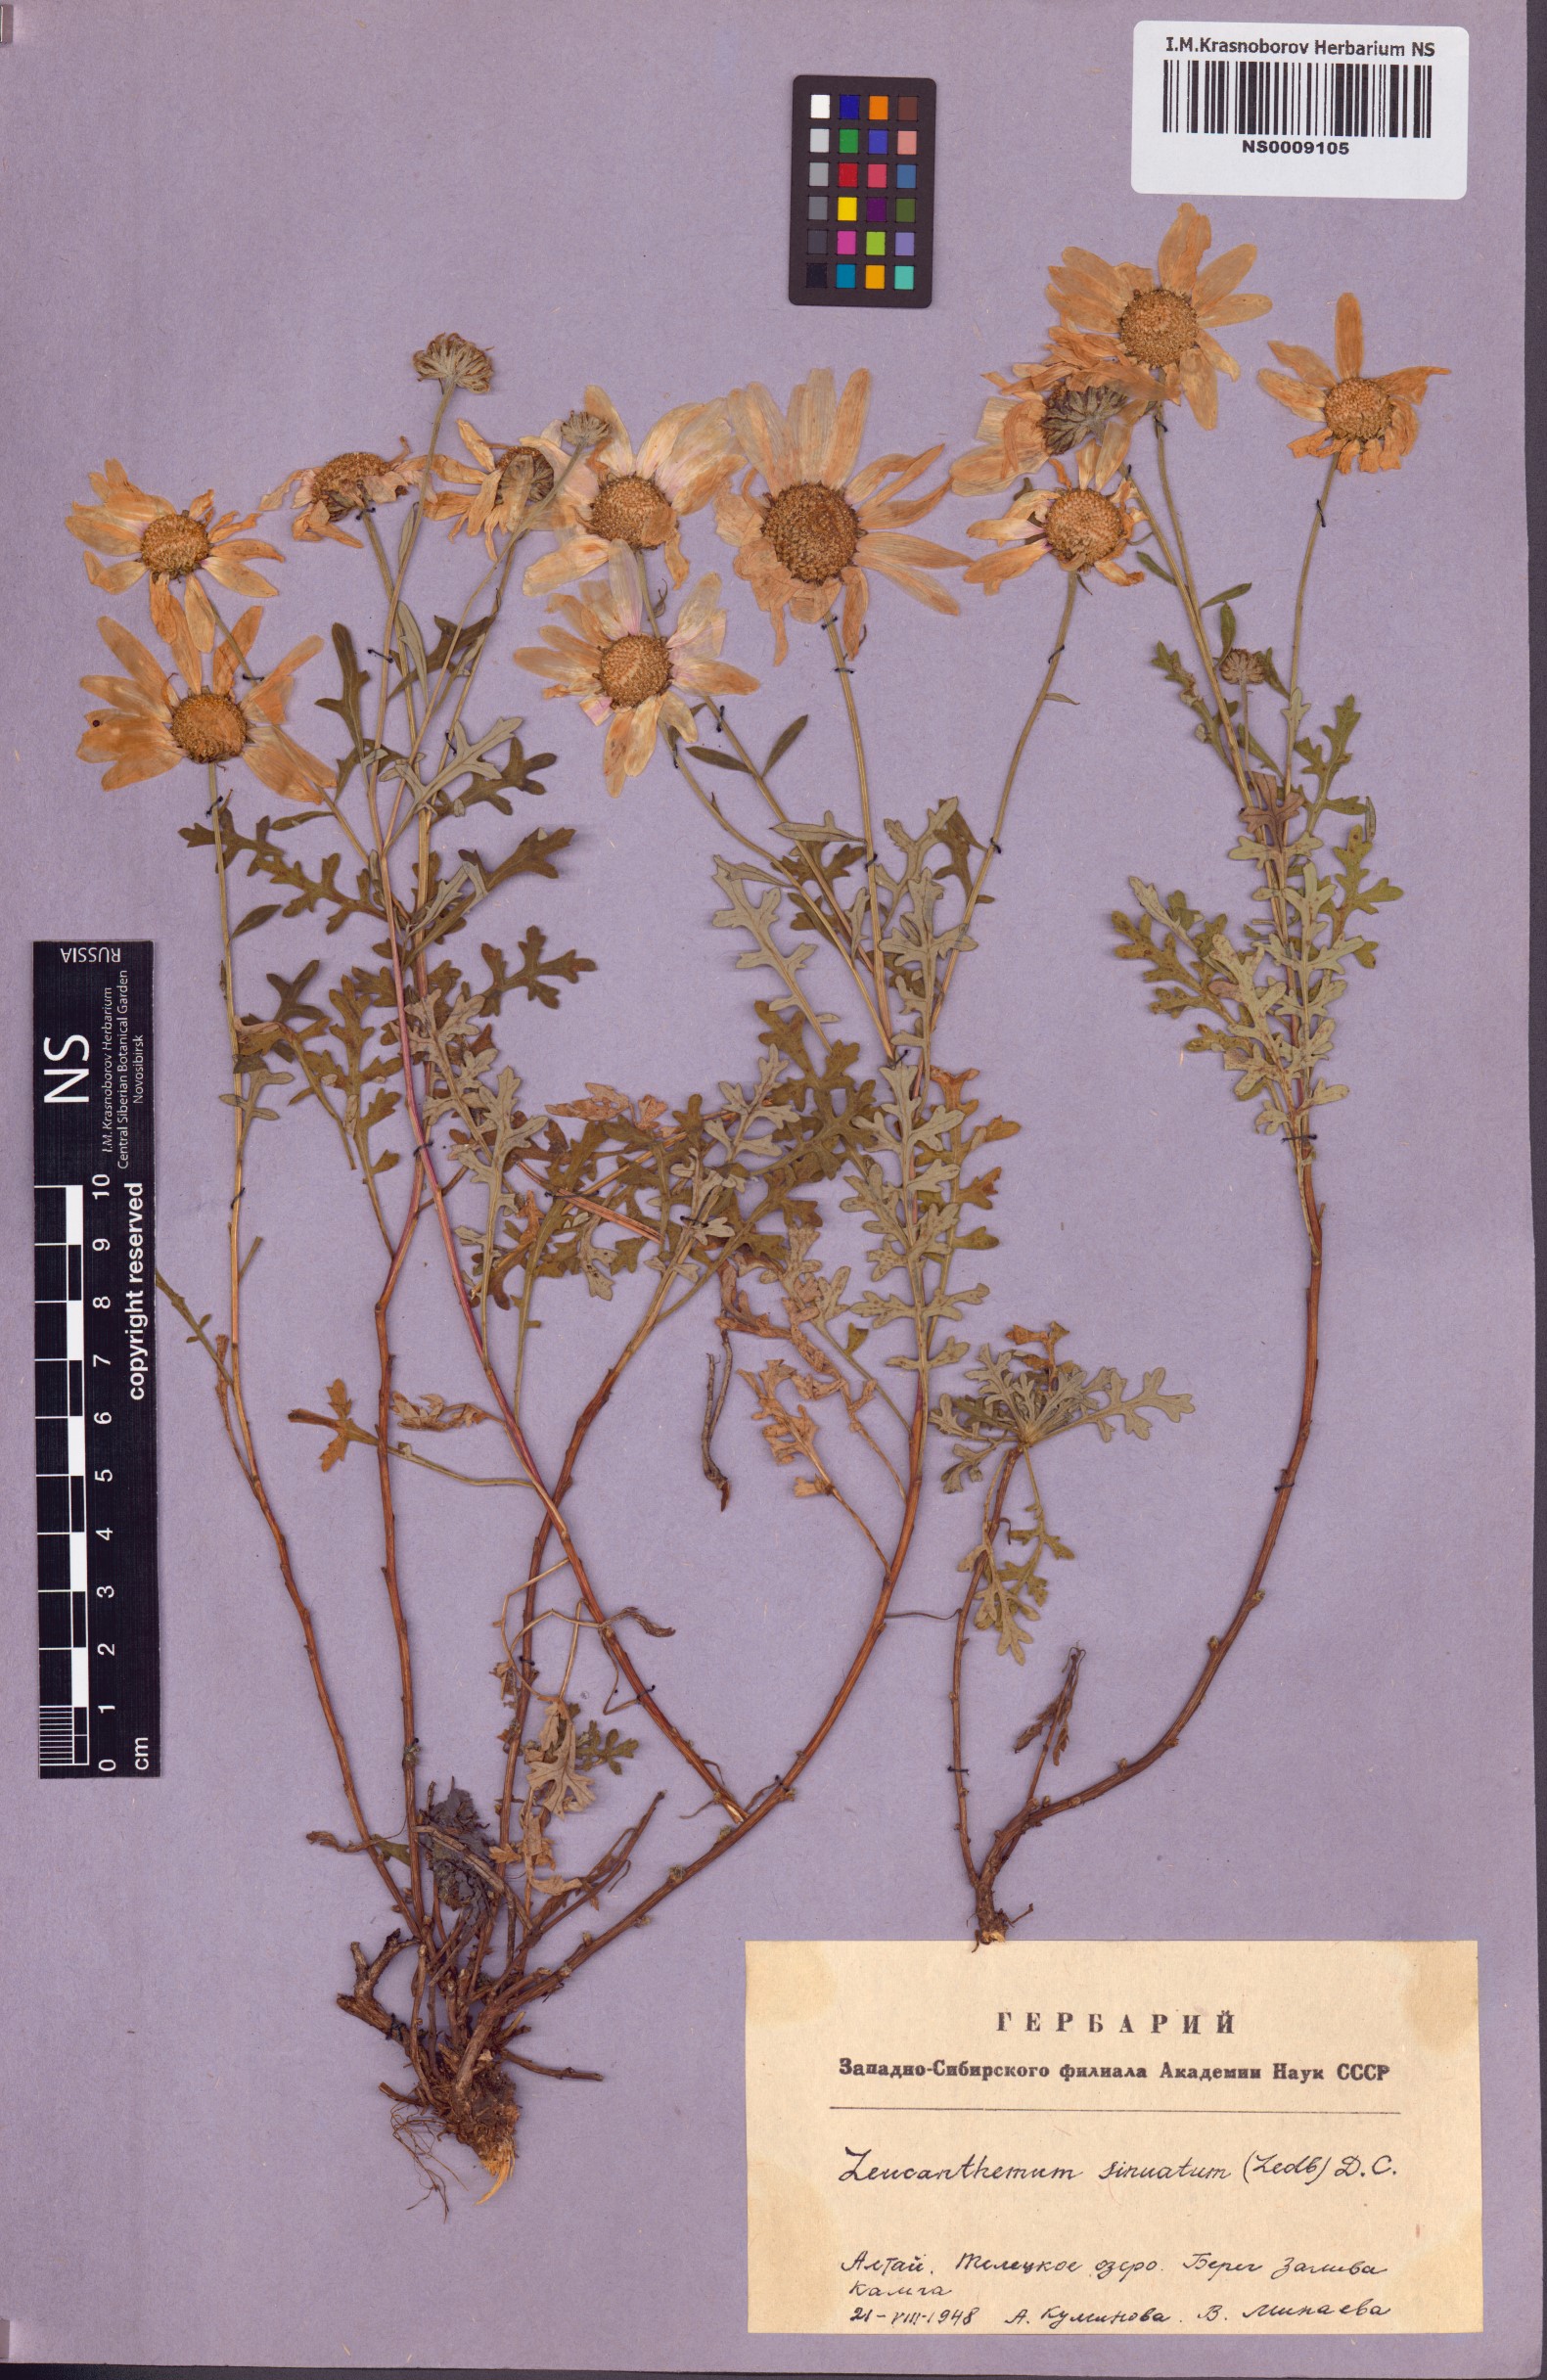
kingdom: Plantae
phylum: Tracheophyta
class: Magnoliopsida
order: Asterales
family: Asteraceae
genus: Chrysanthemum
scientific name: Chrysanthemum sinuatum
